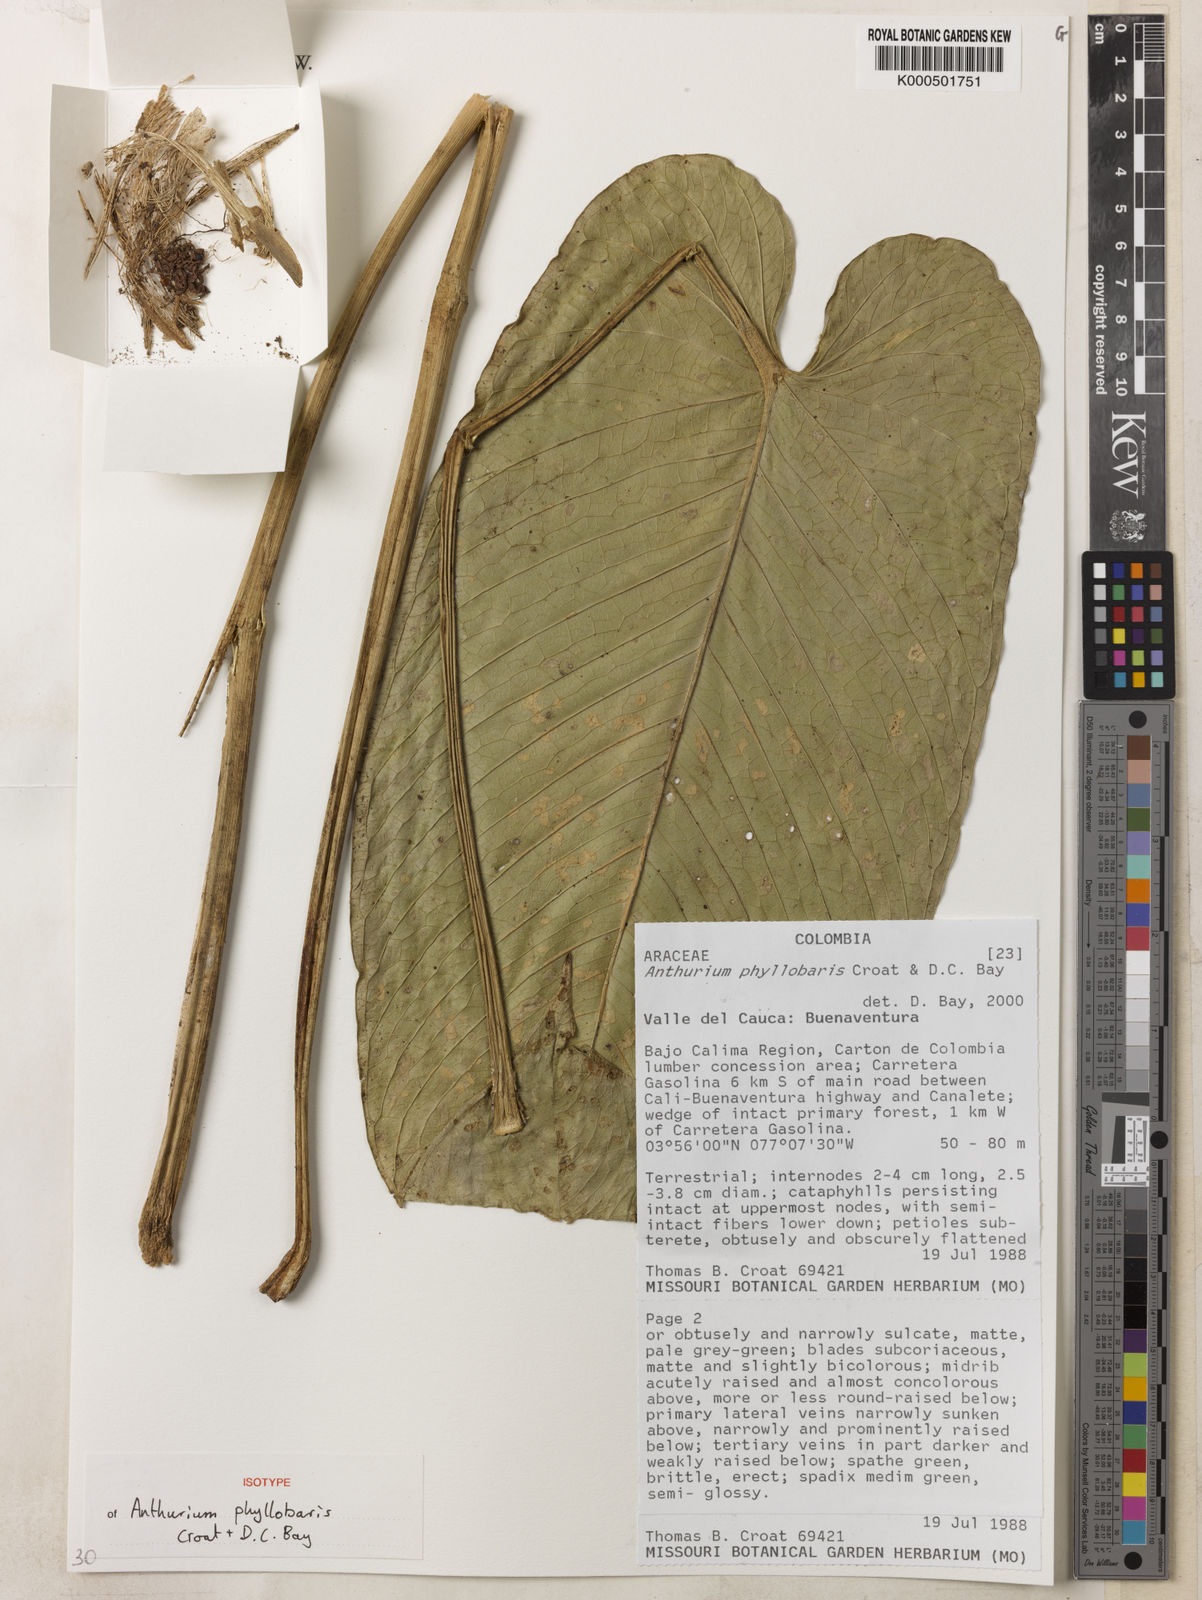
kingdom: Plantae
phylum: Tracheophyta
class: Liliopsida
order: Alismatales
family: Araceae
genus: Anthurium
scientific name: Anthurium phyllobaris
